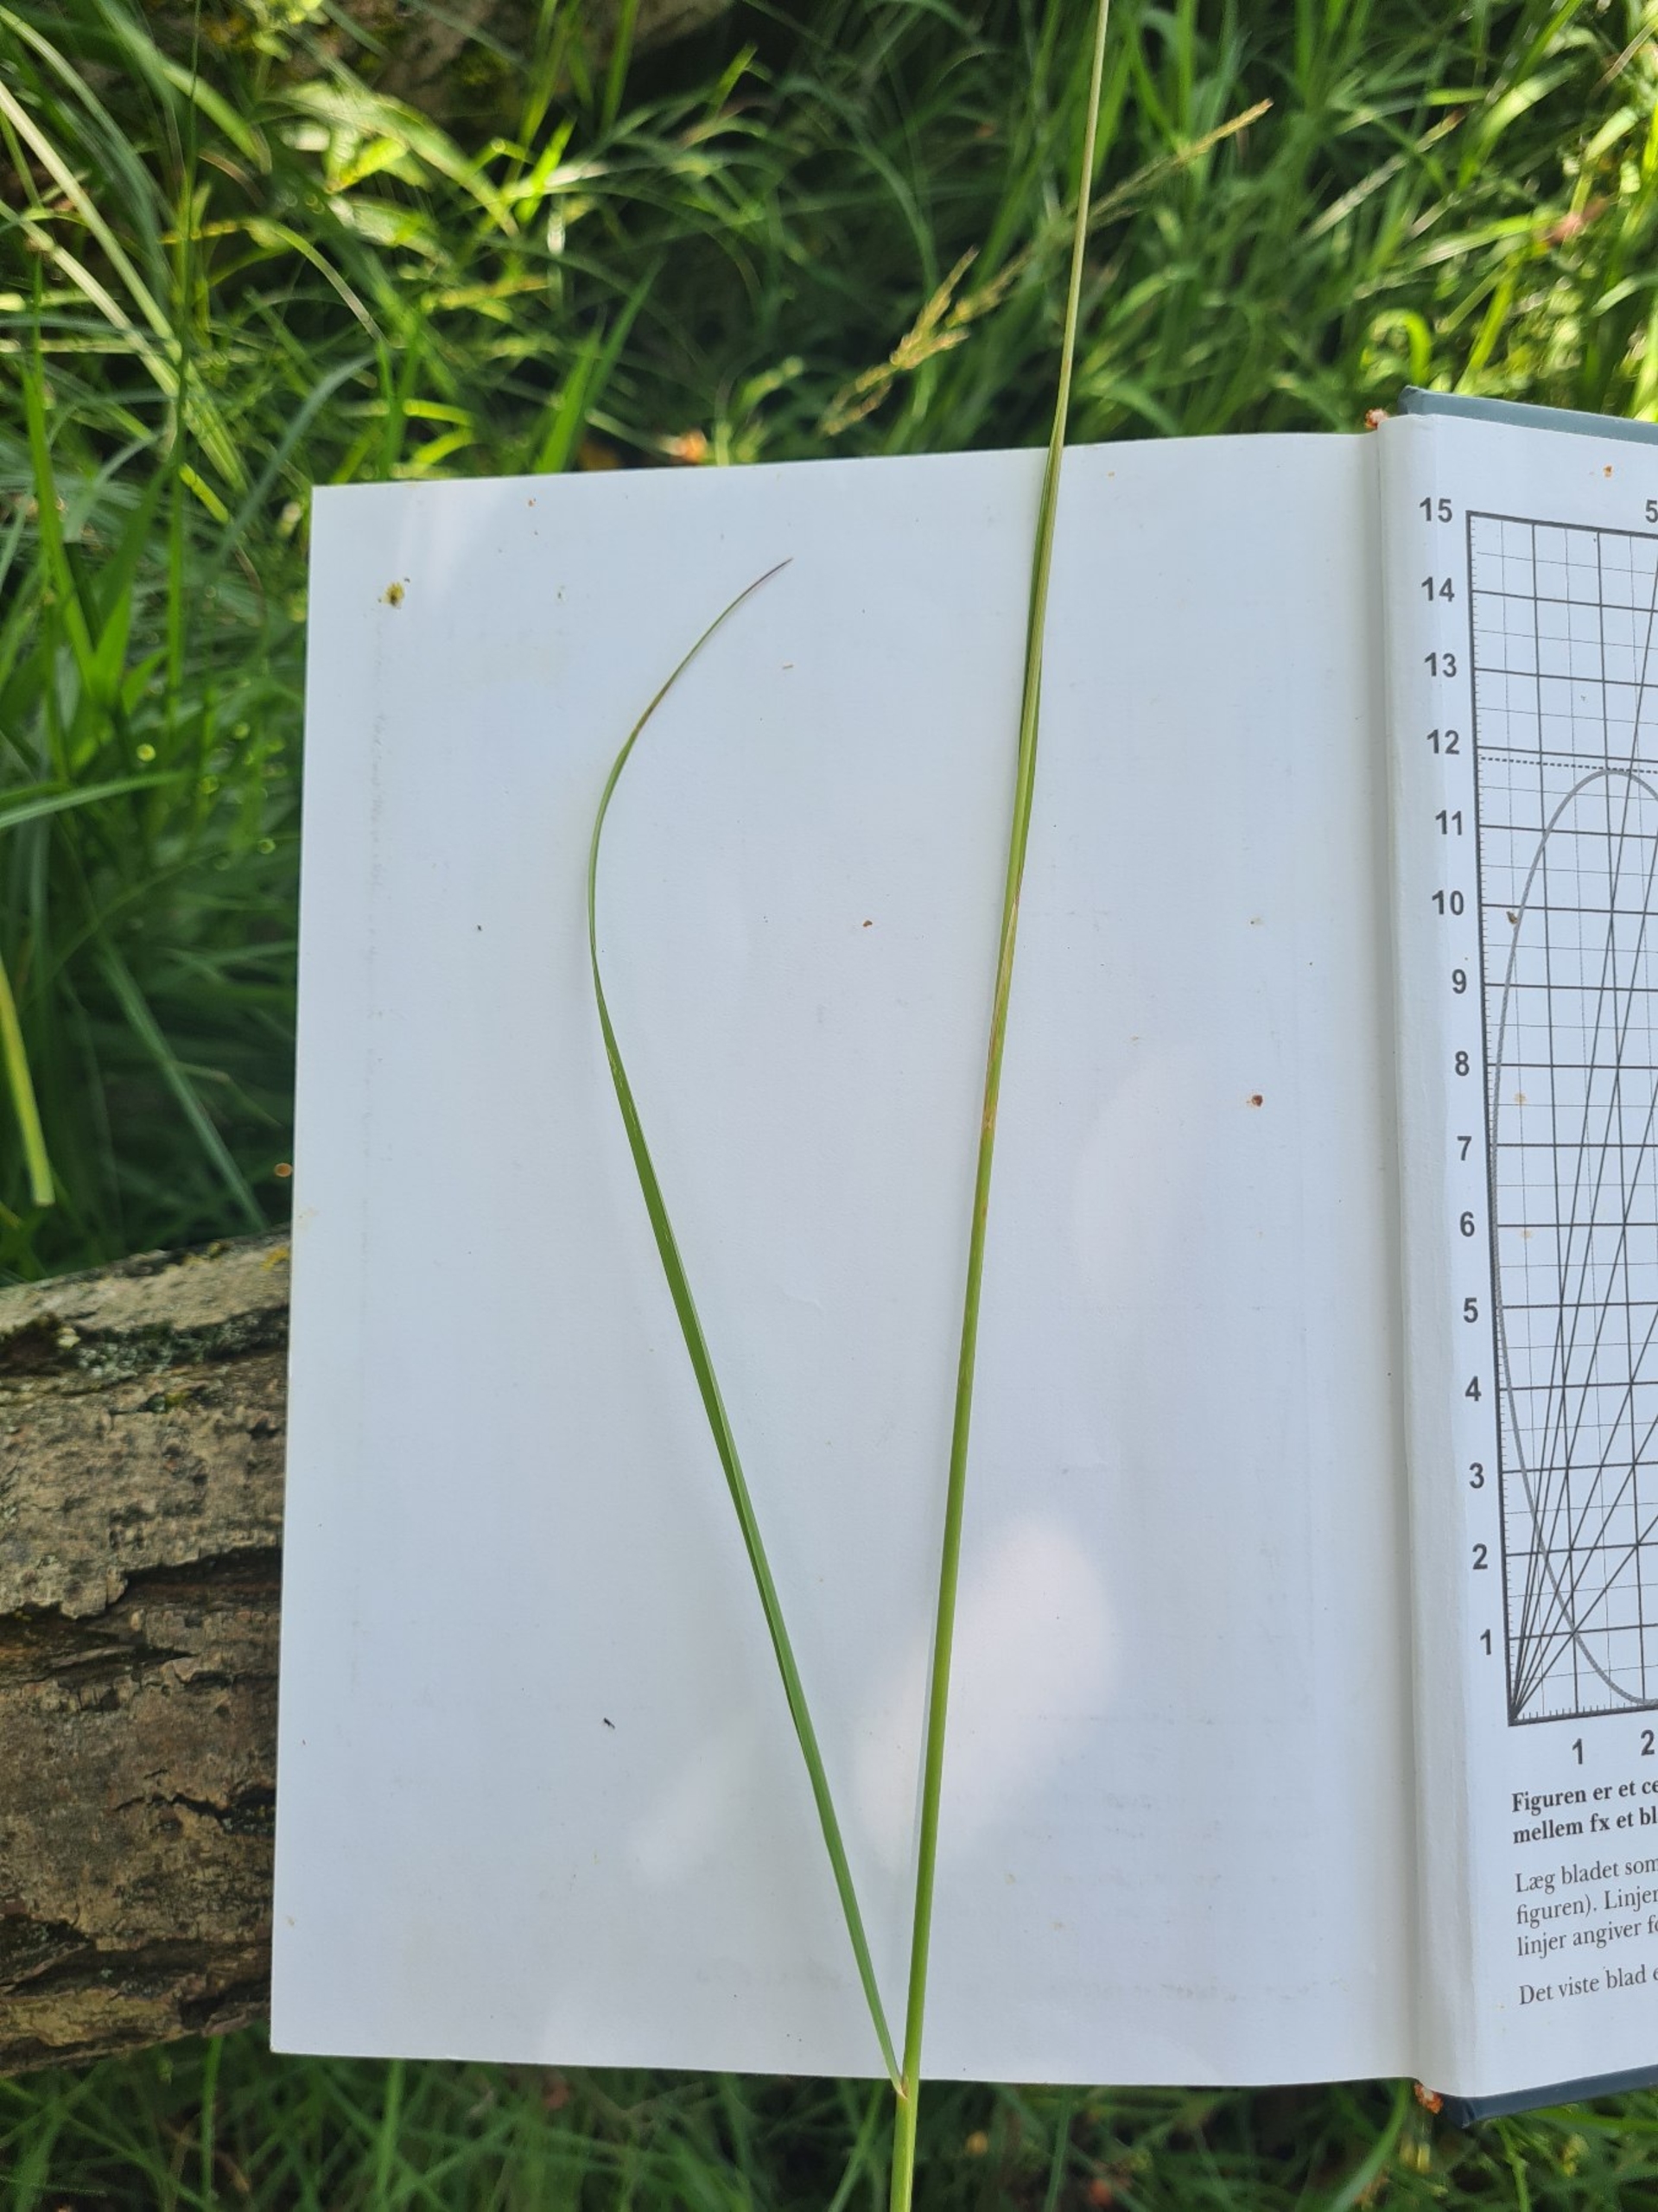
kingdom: Plantae
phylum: Tracheophyta
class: Liliopsida
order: Poales
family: Poaceae
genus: Calamagrostis
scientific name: Calamagrostis epigejos
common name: Bjerg-rørhvene
